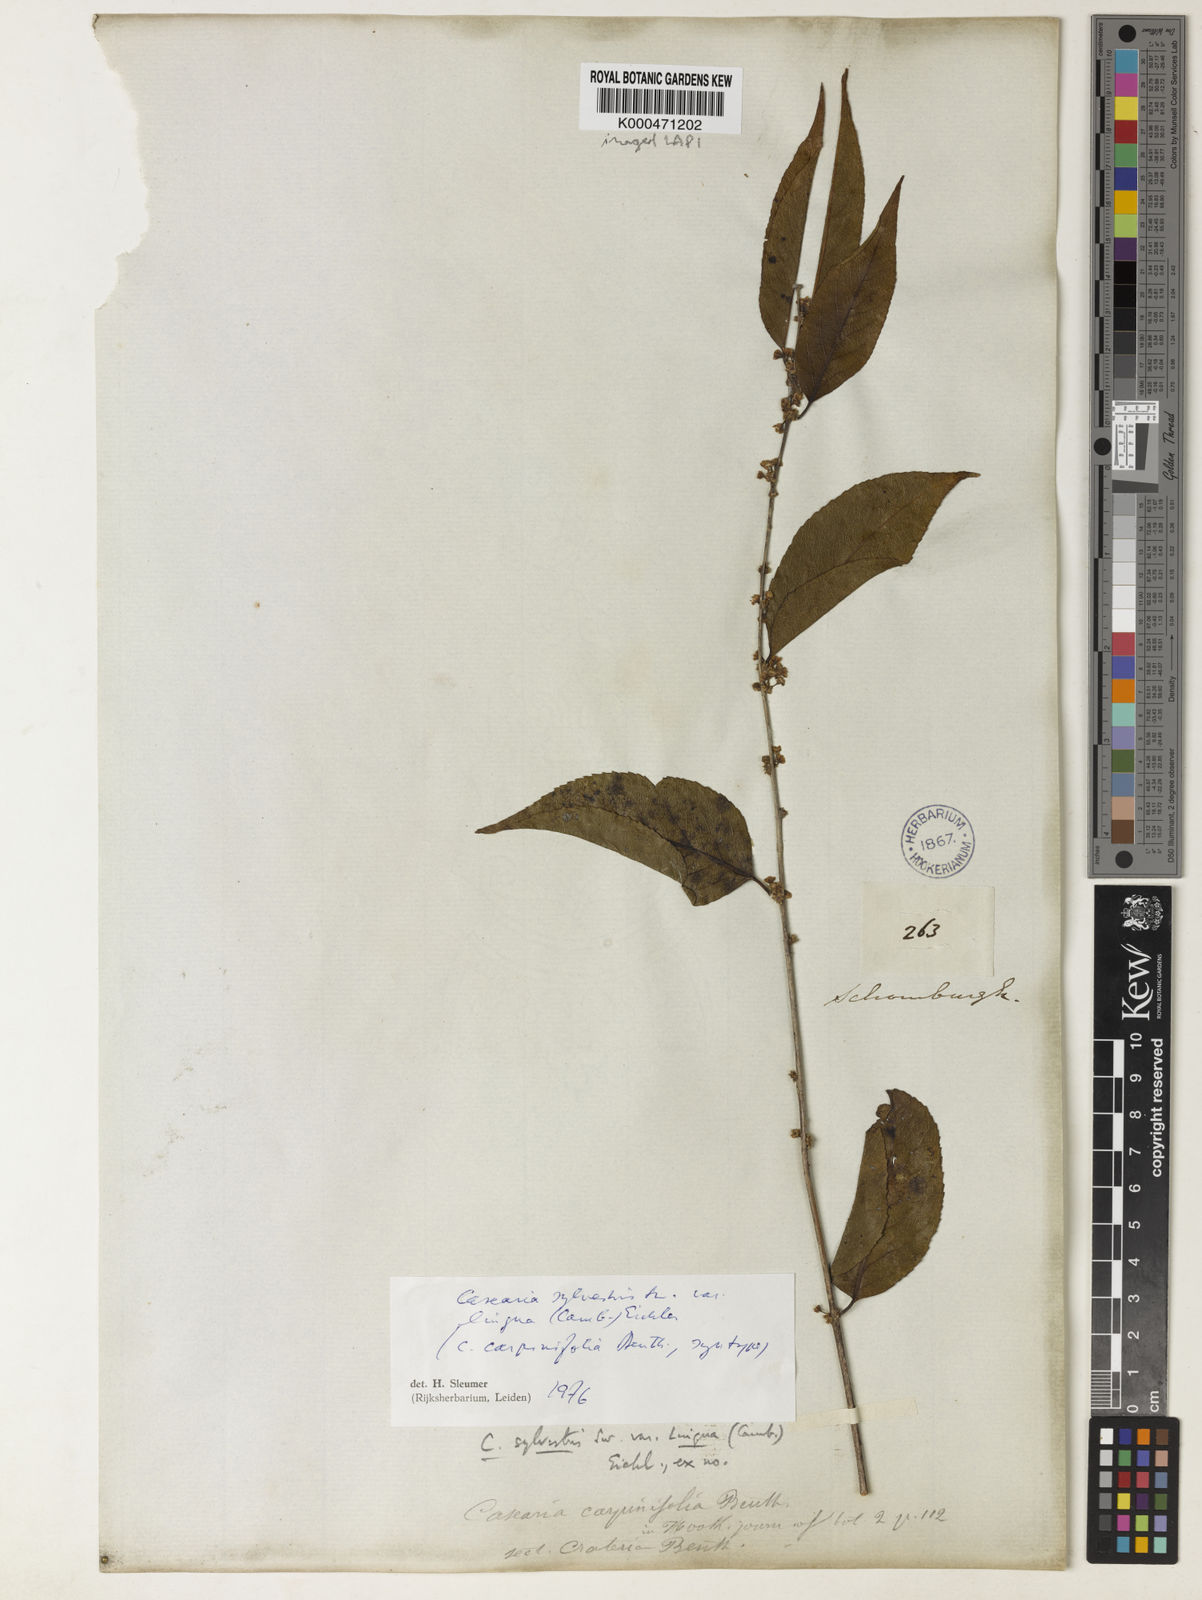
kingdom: Plantae
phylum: Tracheophyta
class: Magnoliopsida
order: Malpighiales
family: Salicaceae
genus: Casearia
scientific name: Casearia sylvestris
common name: Wild sage
